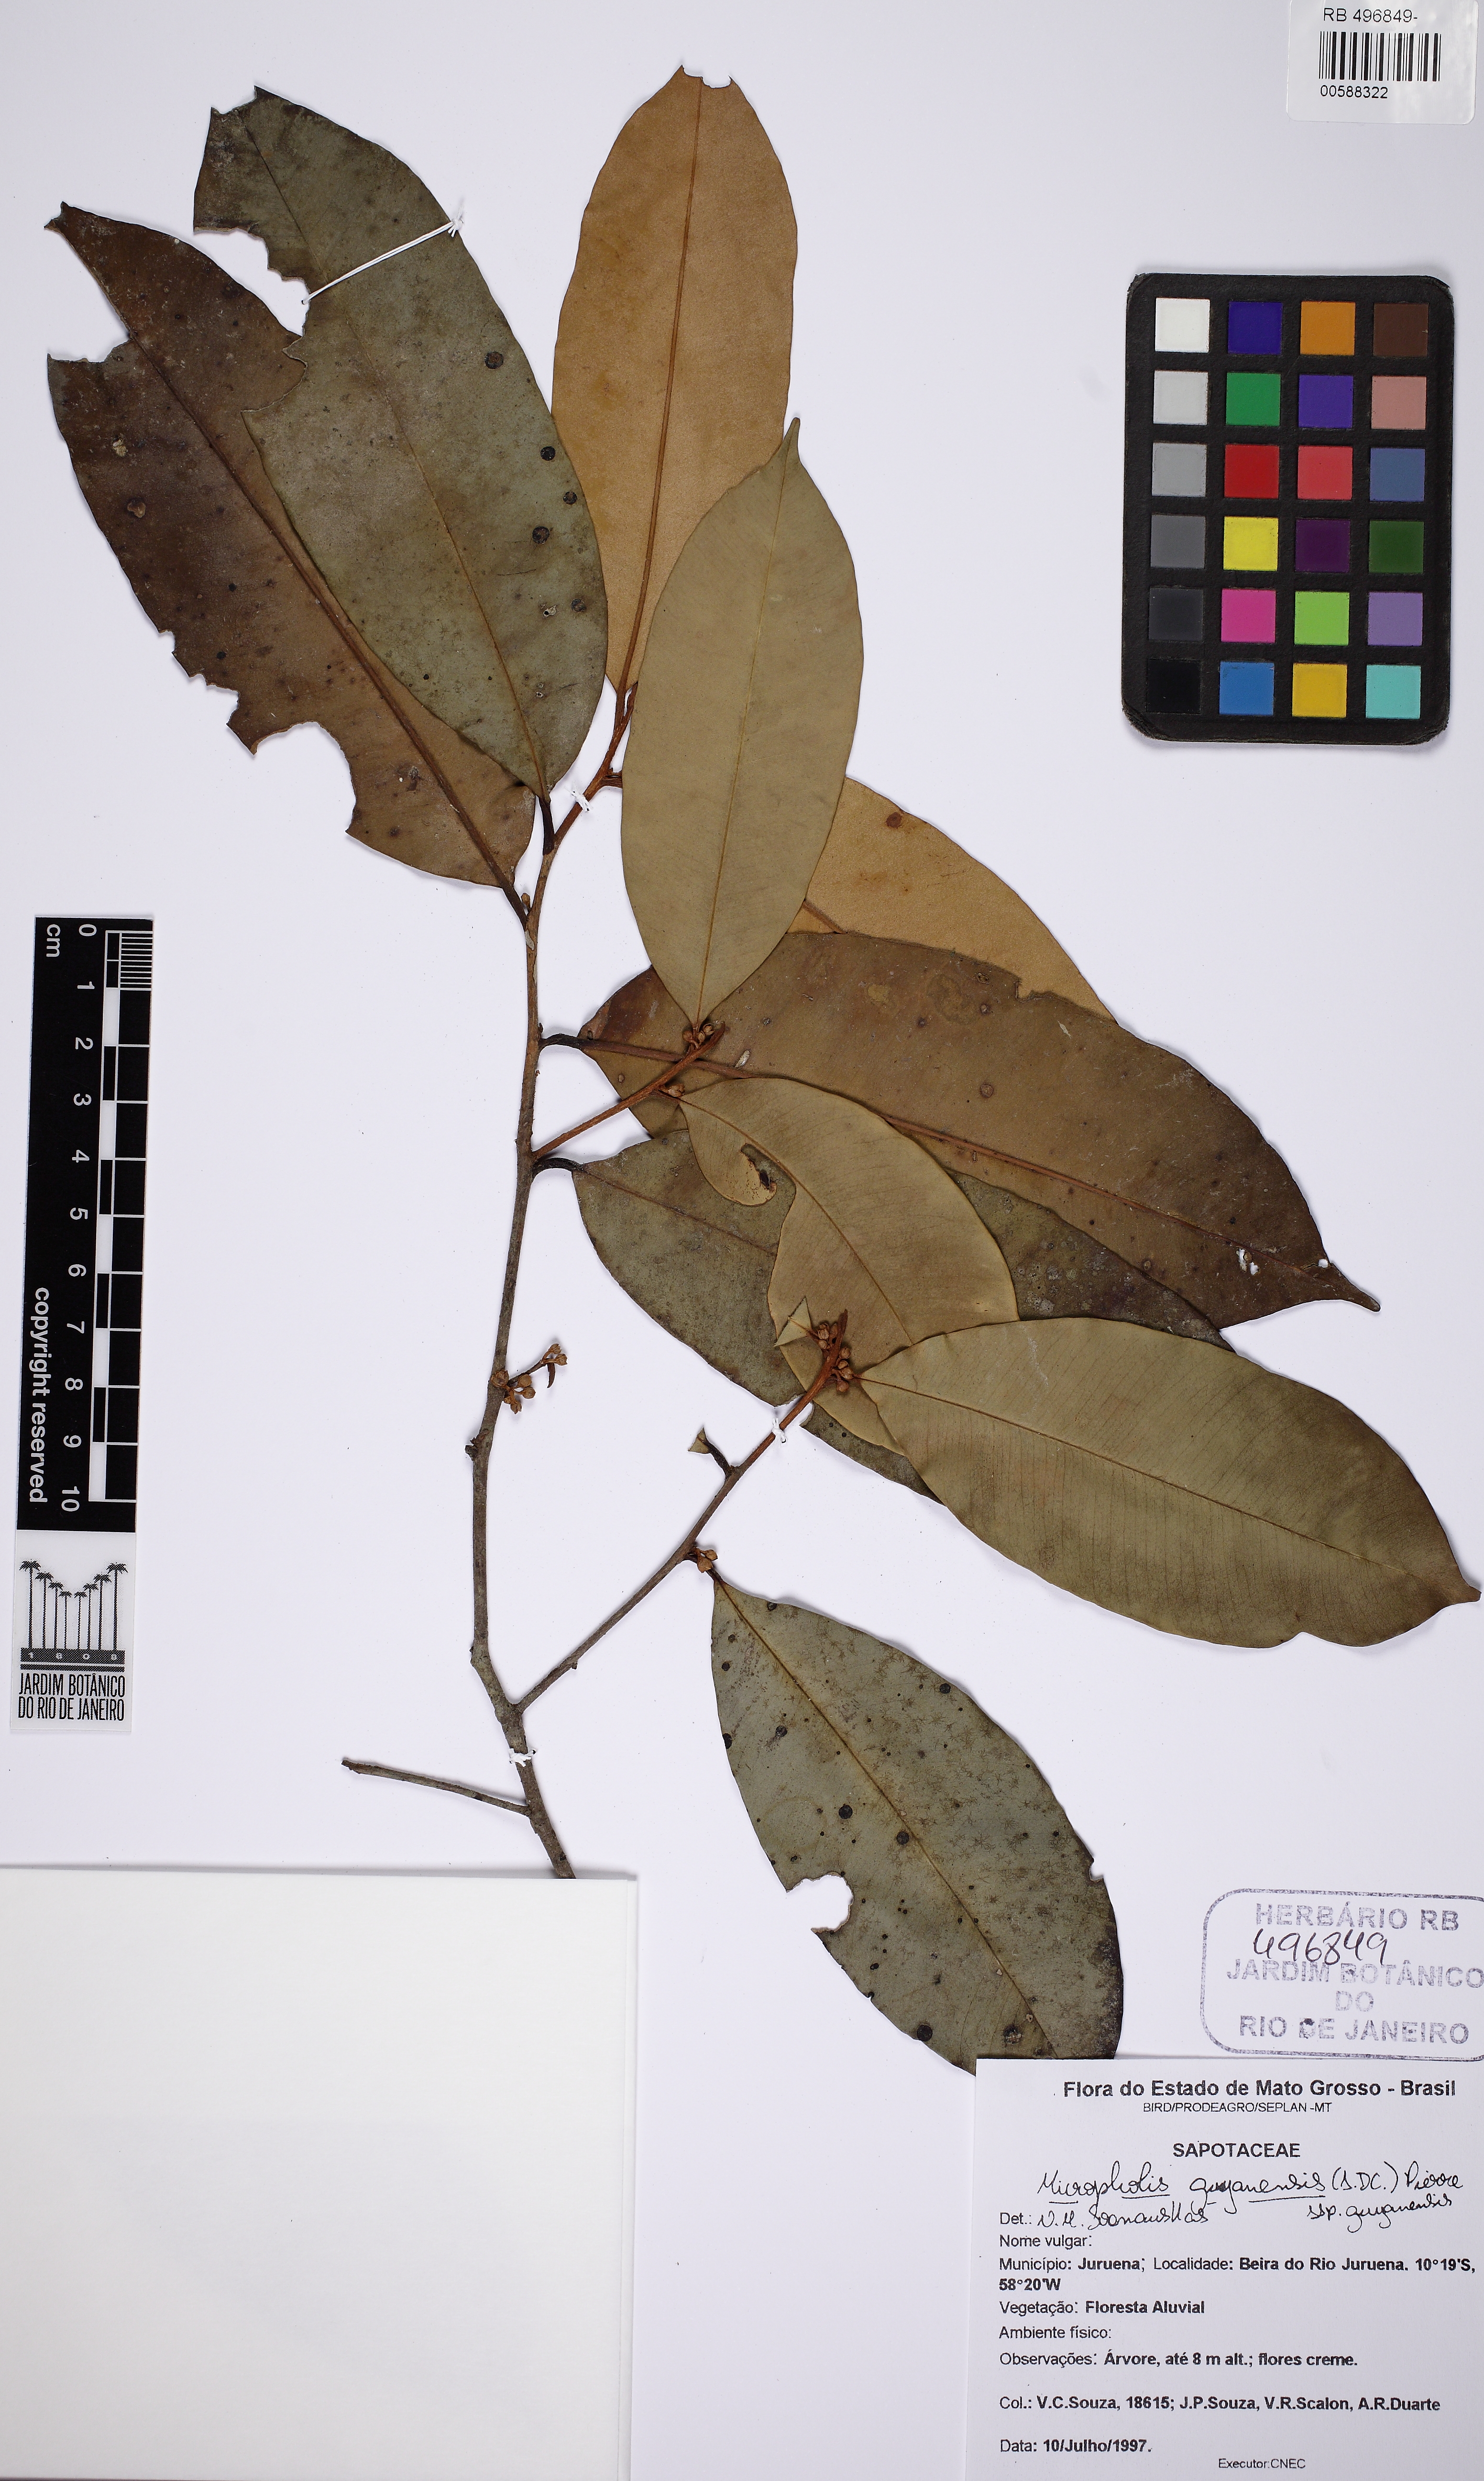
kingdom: Plantae
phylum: Tracheophyta
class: Magnoliopsida
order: Ericales
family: Sapotaceae
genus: Micropholis
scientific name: Micropholis guyanensis
